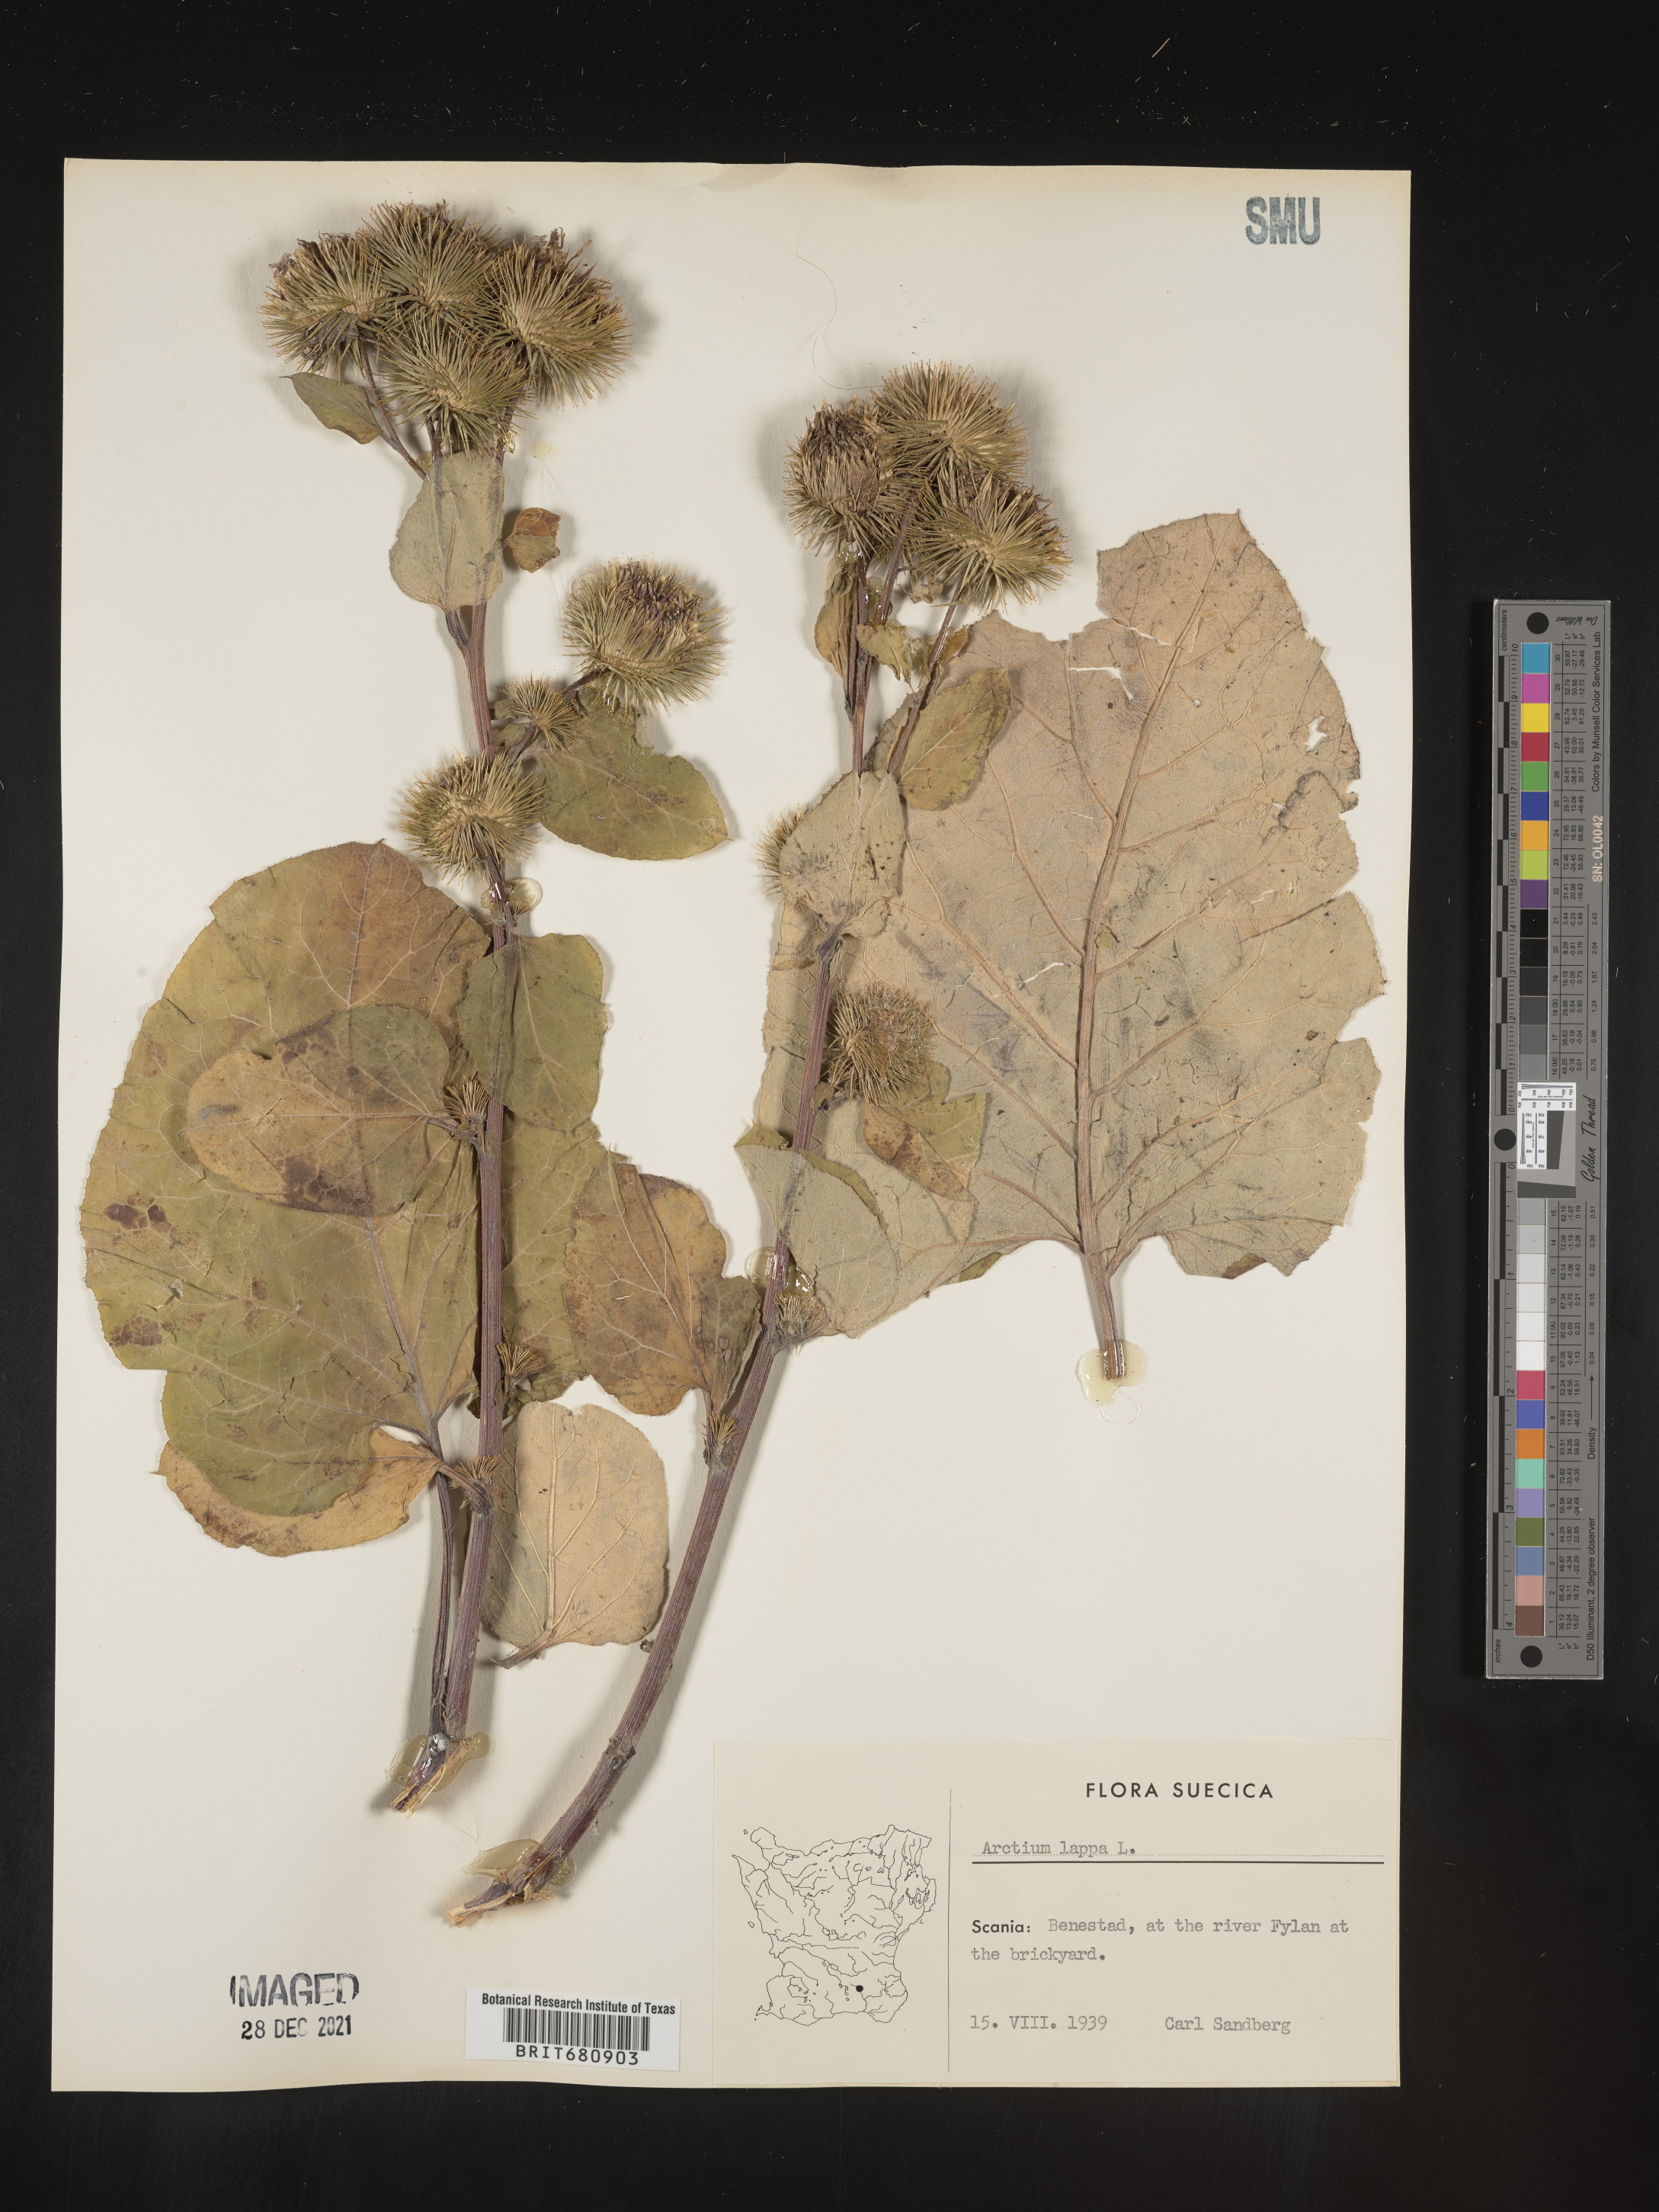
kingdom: Plantae
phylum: Tracheophyta
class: Magnoliopsida
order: Asterales
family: Asteraceae
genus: Arctium
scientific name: Arctium lappa
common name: Greater burdock
